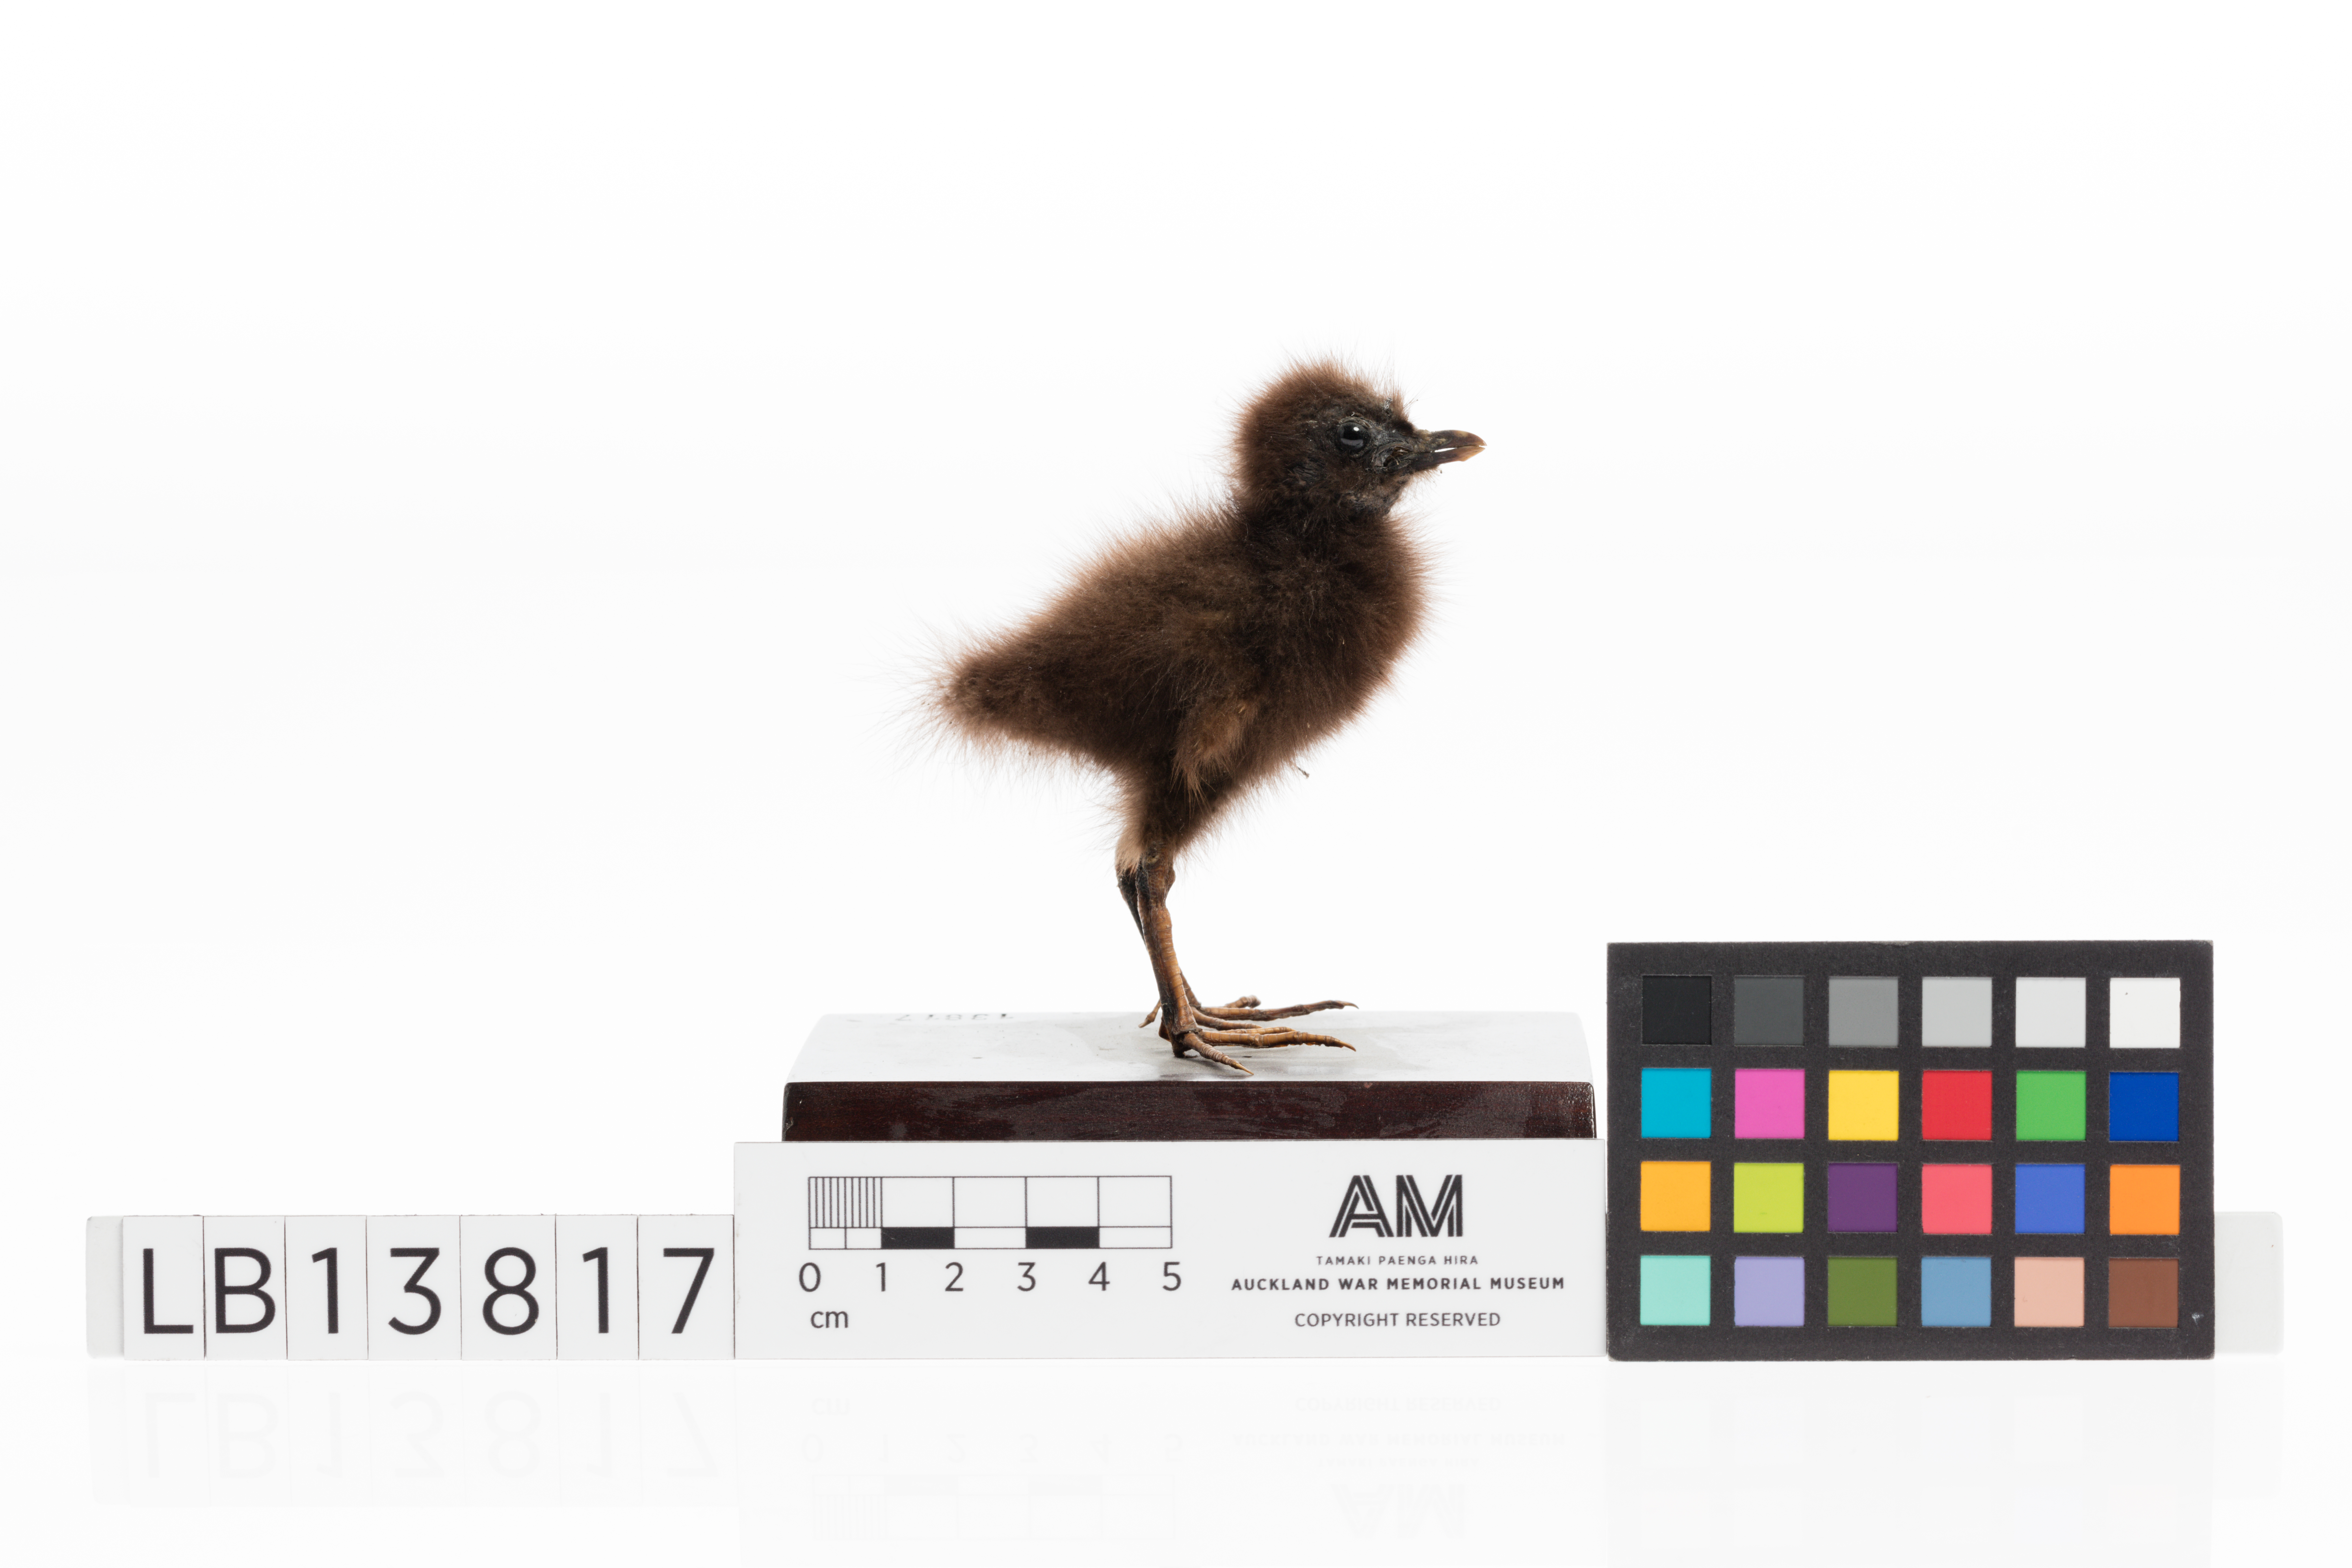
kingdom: Animalia
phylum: Chordata
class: Aves
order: Gruiformes
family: Rallidae
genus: Gallirallus
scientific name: Gallirallus philippensis
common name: Buff-banded rail
